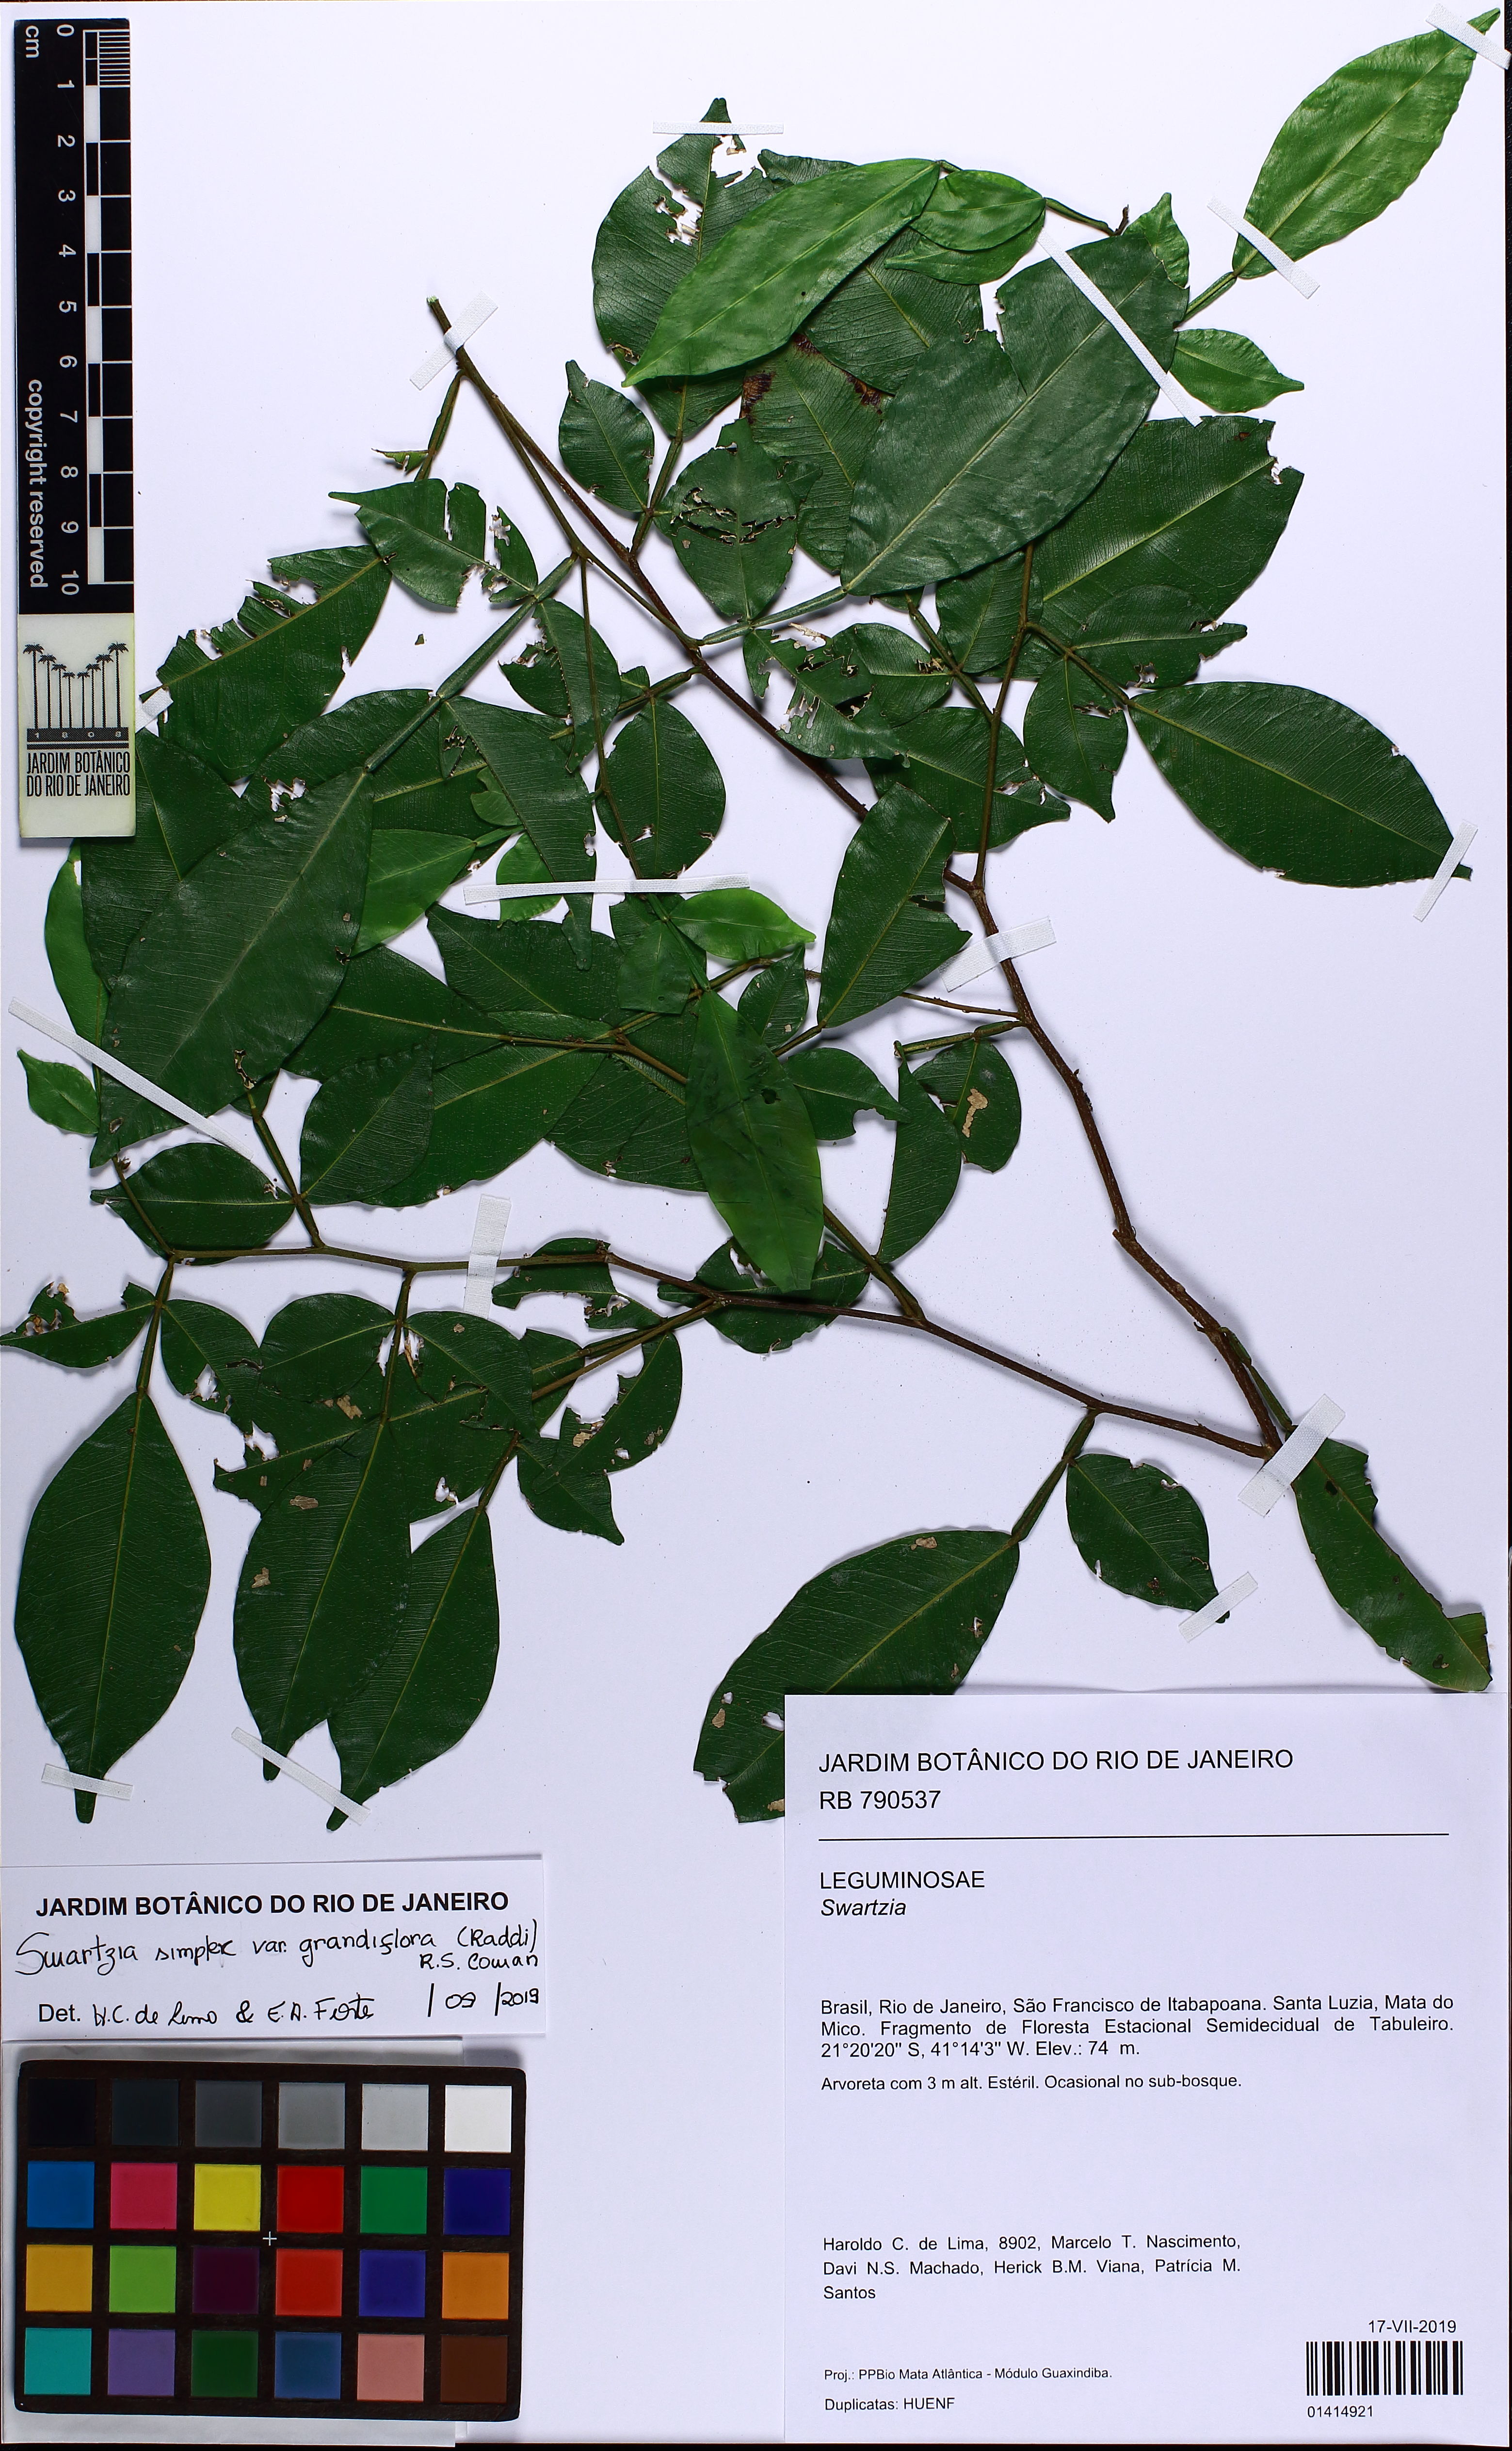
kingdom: Plantae
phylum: Tracheophyta
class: Magnoliopsida
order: Fabales
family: Fabaceae
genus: Swartzia
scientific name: Swartzia simplex
